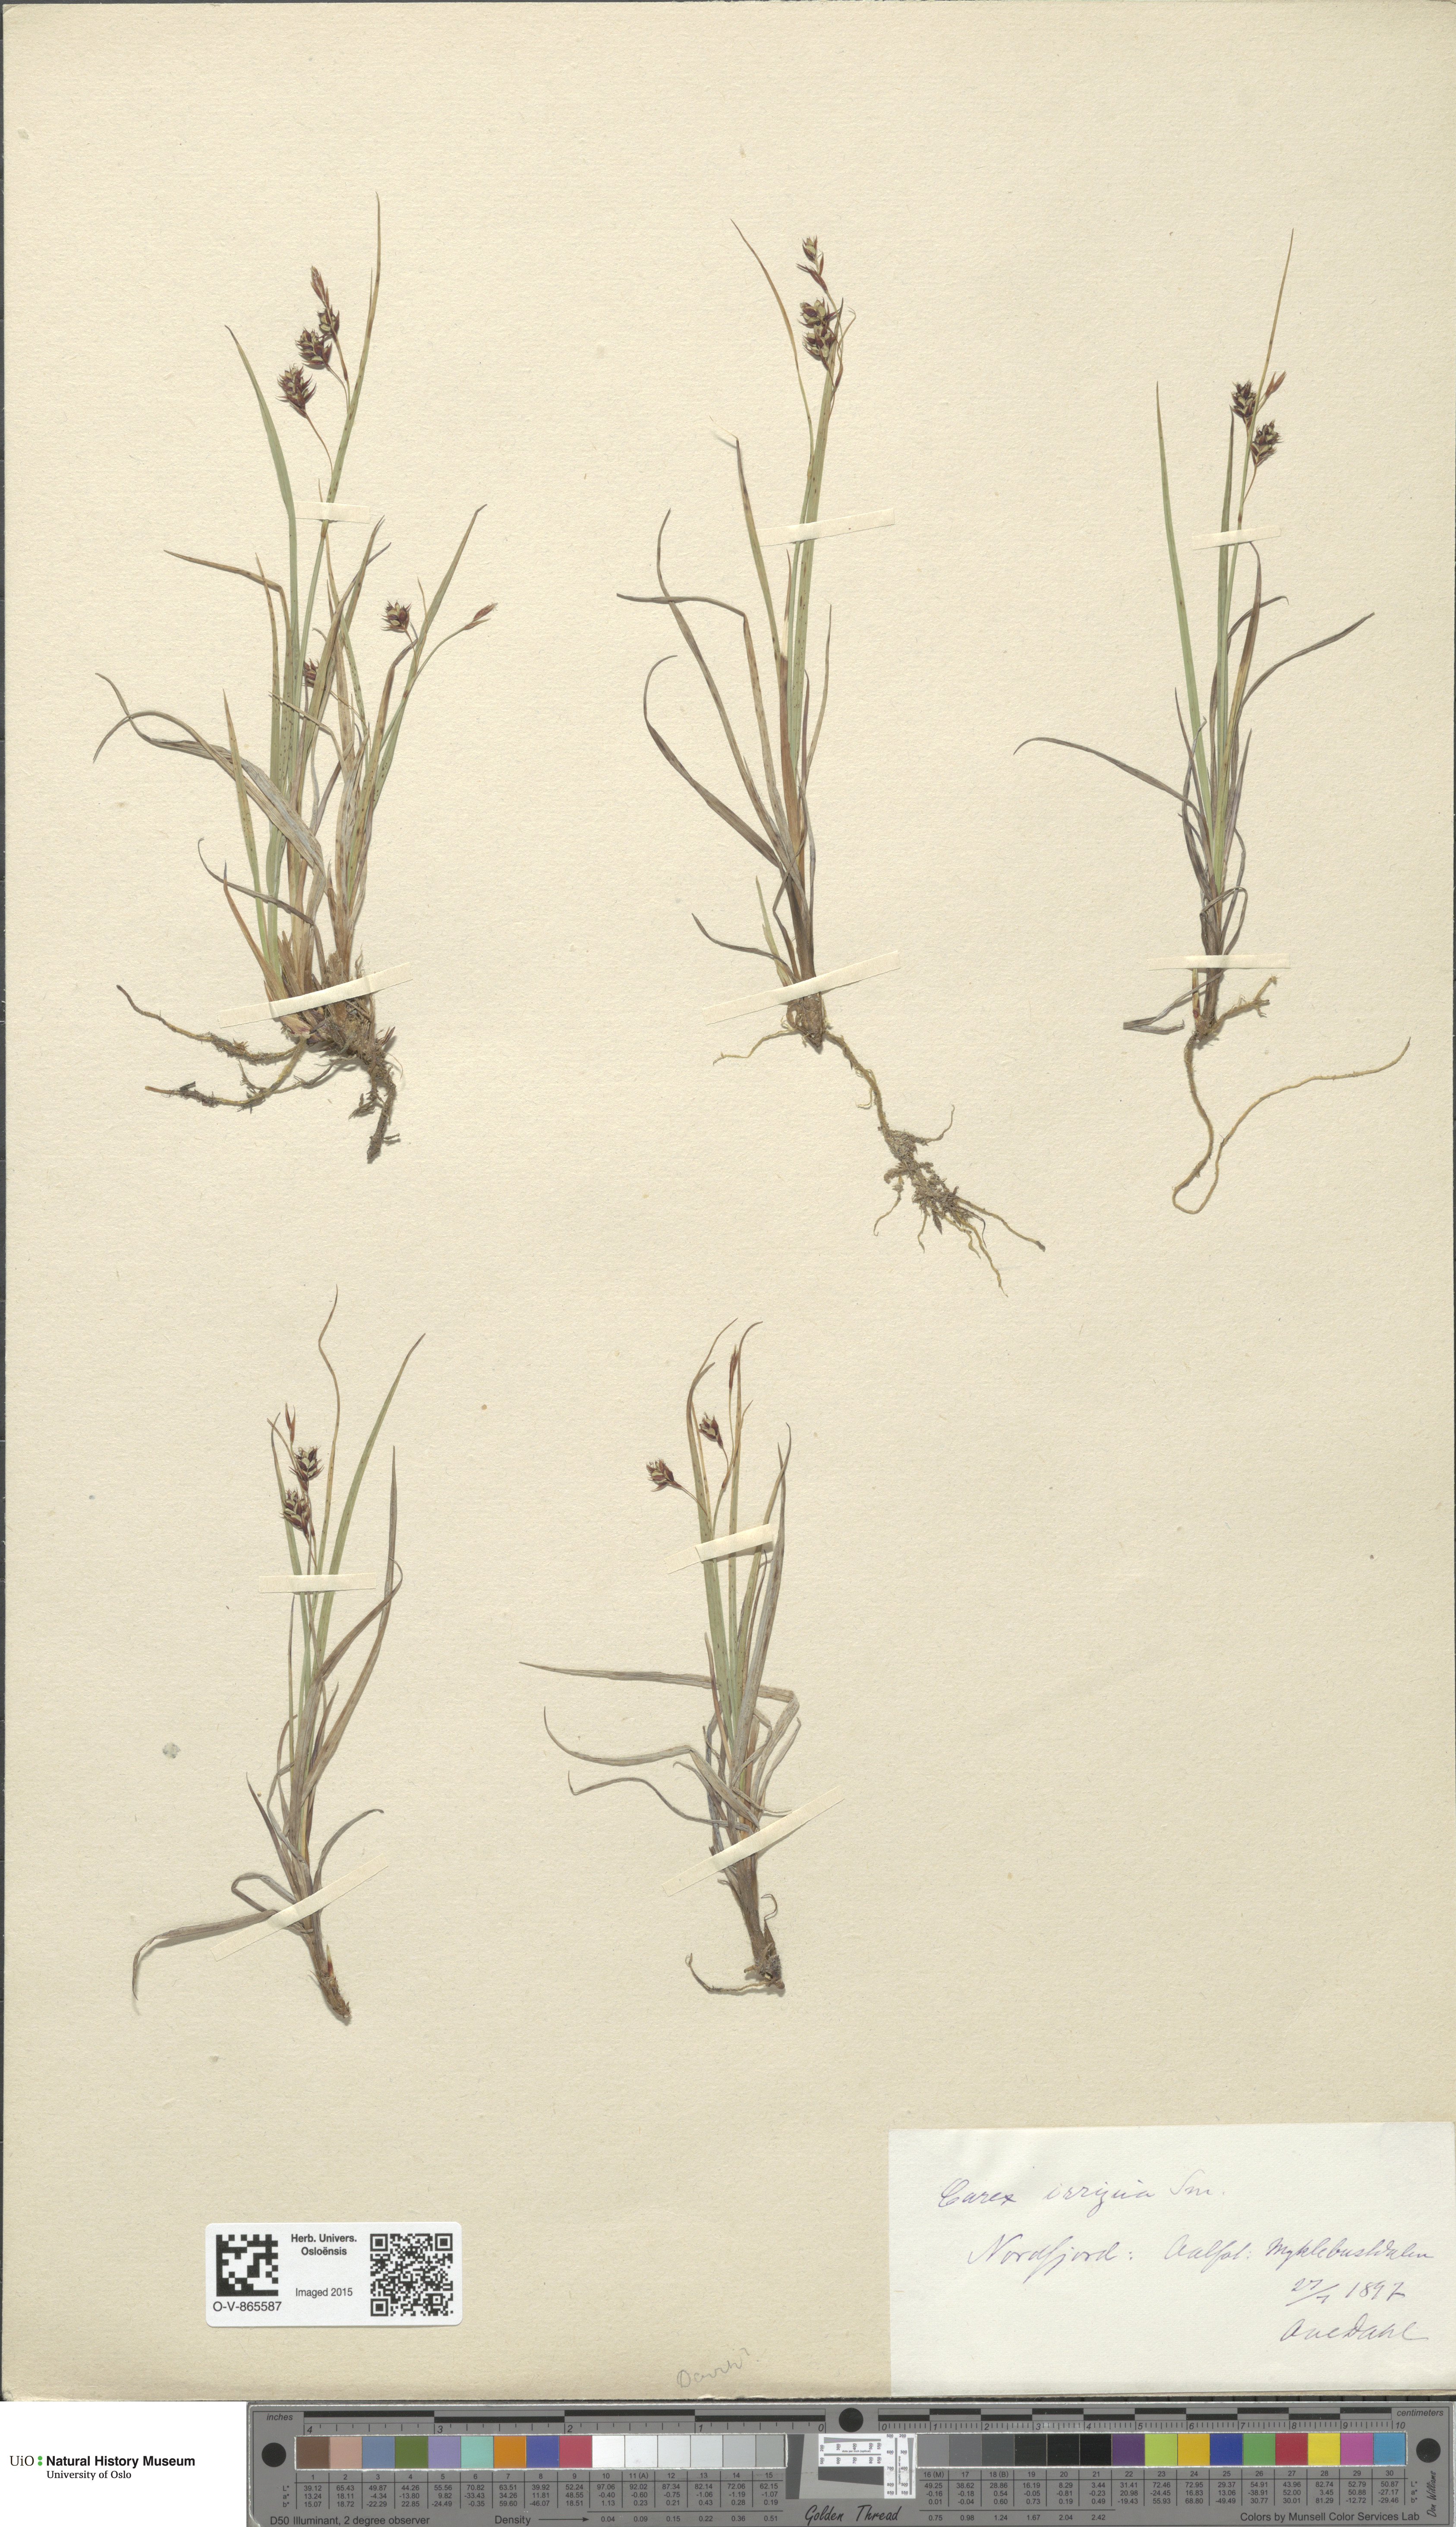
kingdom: Plantae
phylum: Tracheophyta
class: Liliopsida
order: Poales
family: Cyperaceae
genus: Carex
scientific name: Carex magellanica
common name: Bog sedge
